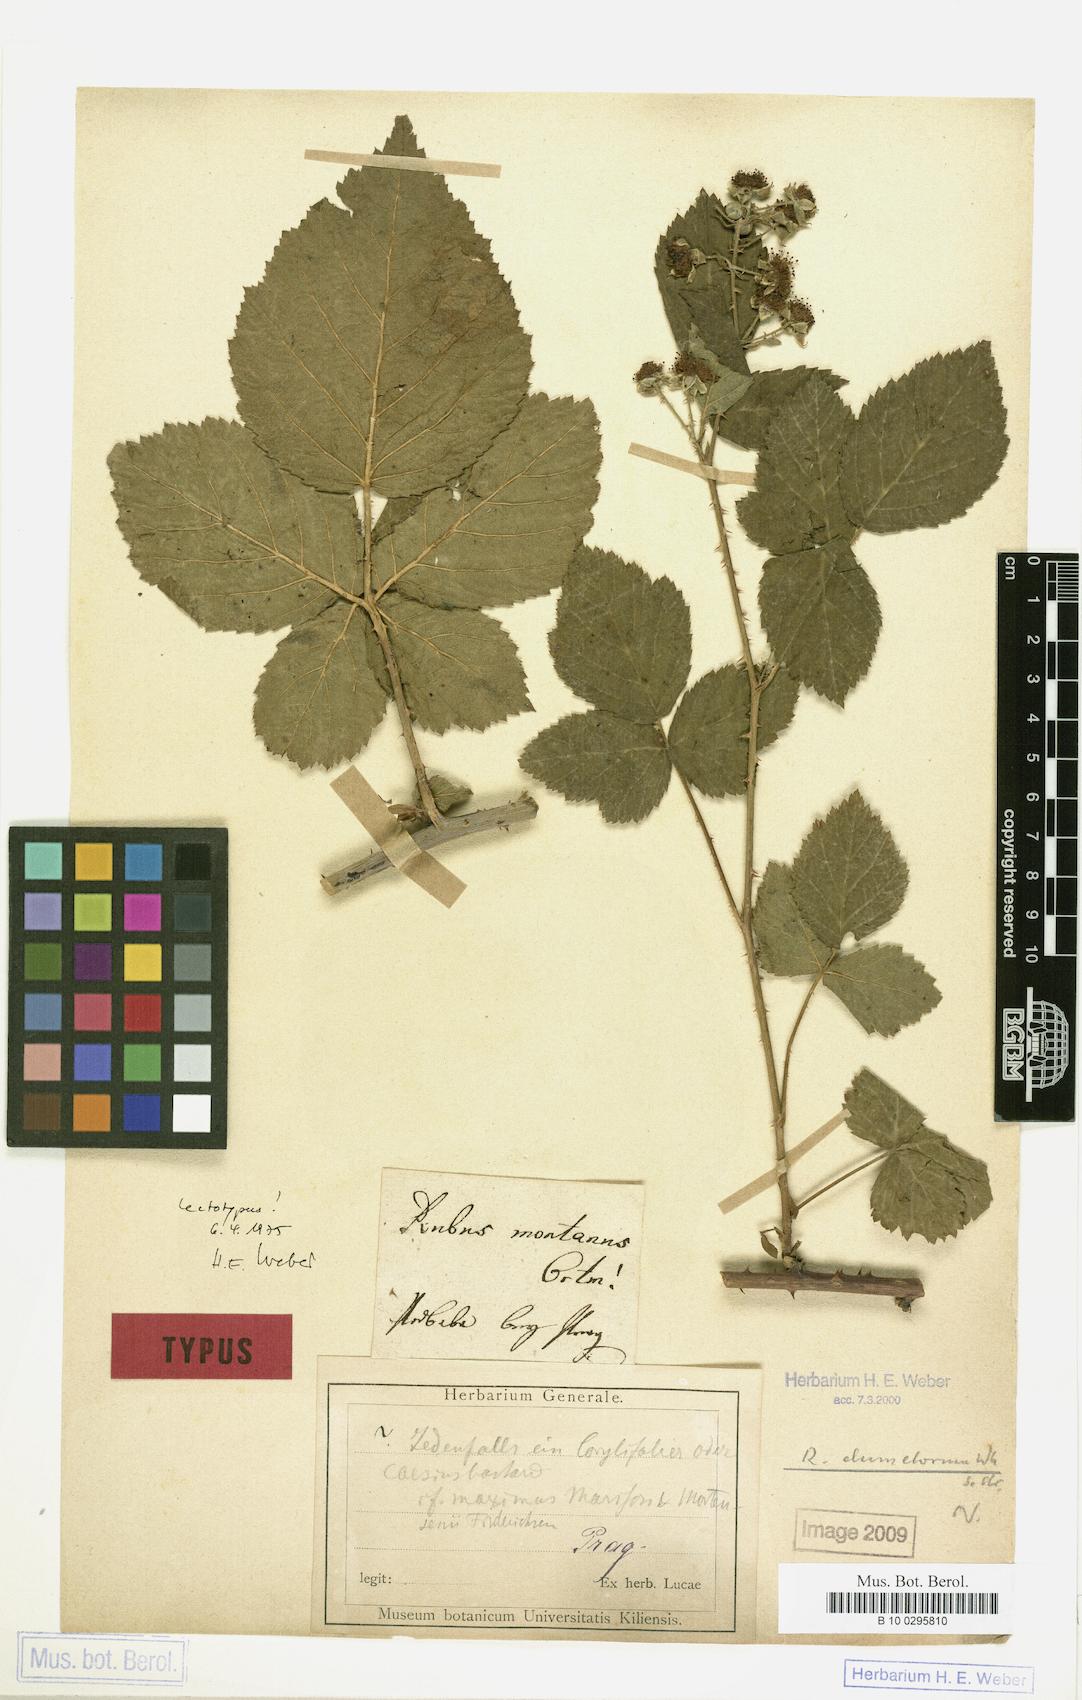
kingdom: Plantae
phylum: Tracheophyta
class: Magnoliopsida
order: Rosales
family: Rosaceae
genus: Rubus
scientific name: Rubus dumetorum
